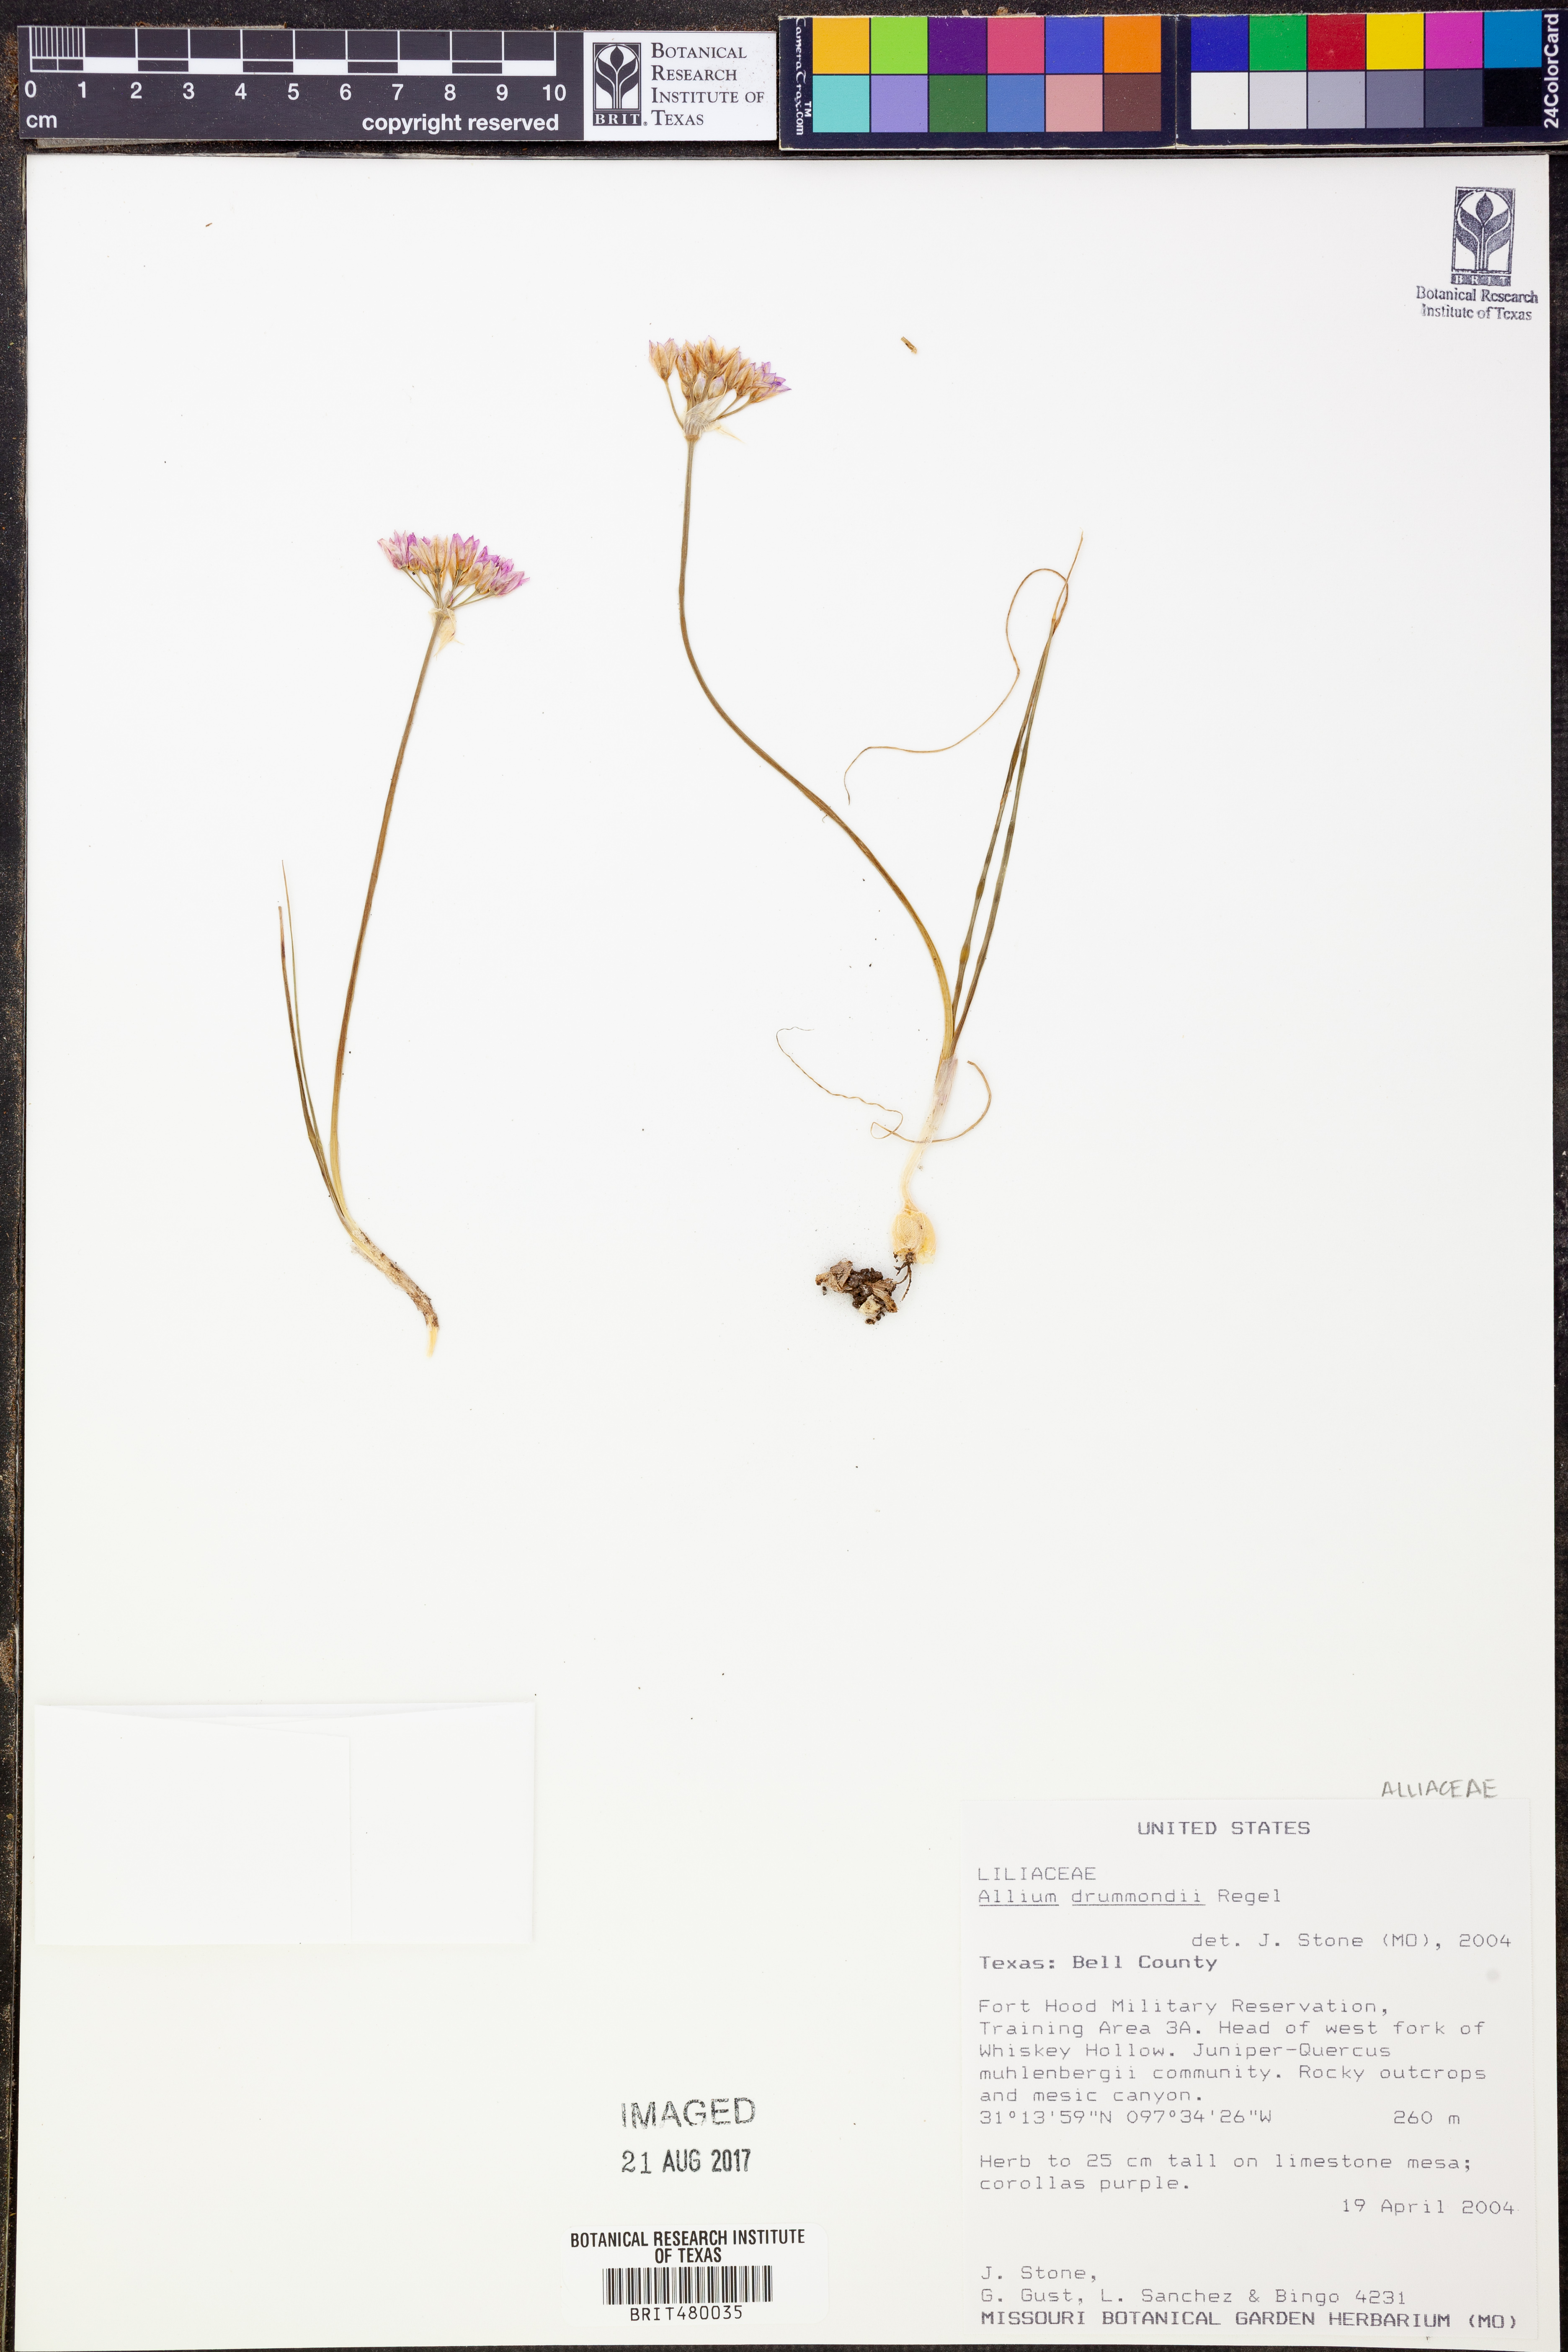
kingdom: Plantae
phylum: Tracheophyta
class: Liliopsida
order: Asparagales
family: Amaryllidaceae
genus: Allium
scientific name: Allium drummondii
